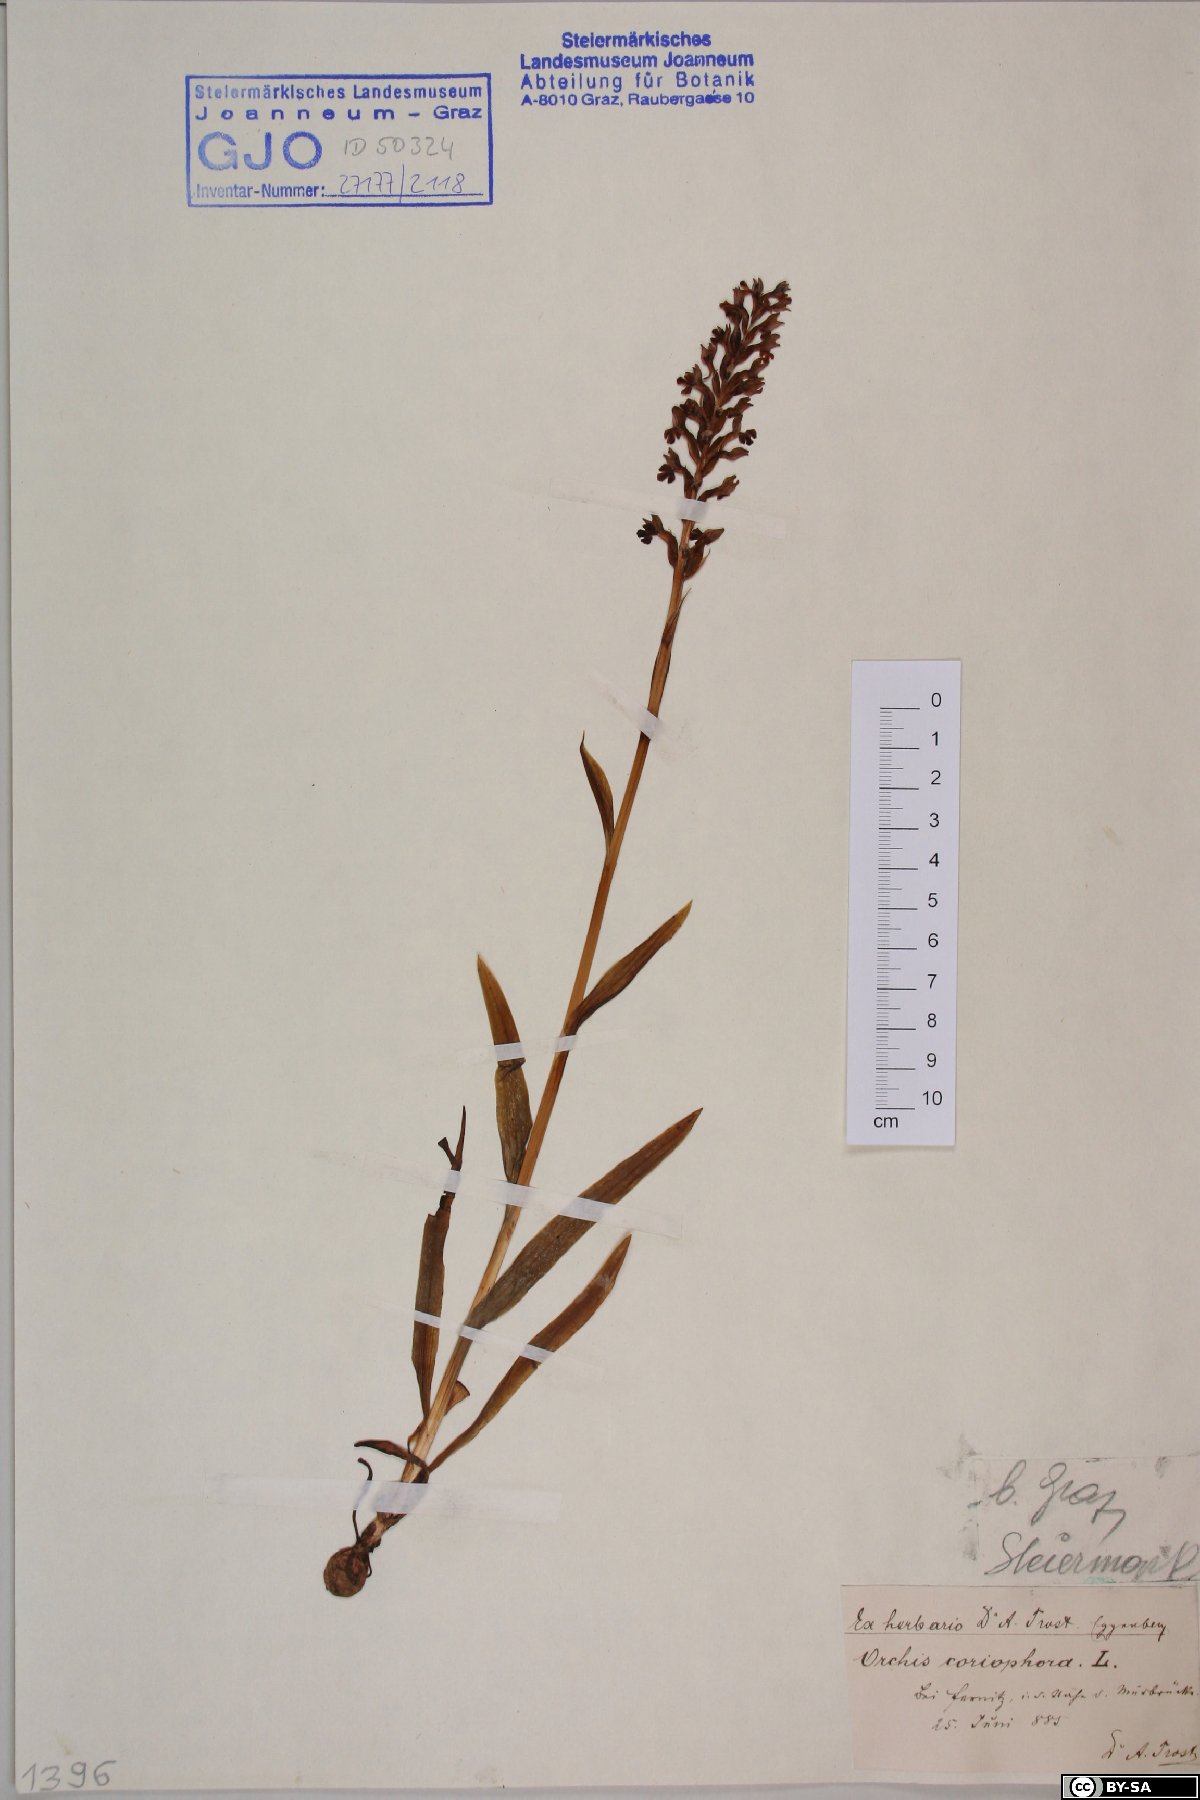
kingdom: Plantae
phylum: Bryophyta
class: Bryopsida
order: Pottiales
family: Pottiaceae
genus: Geheebia
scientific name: Geheebia tophacea
